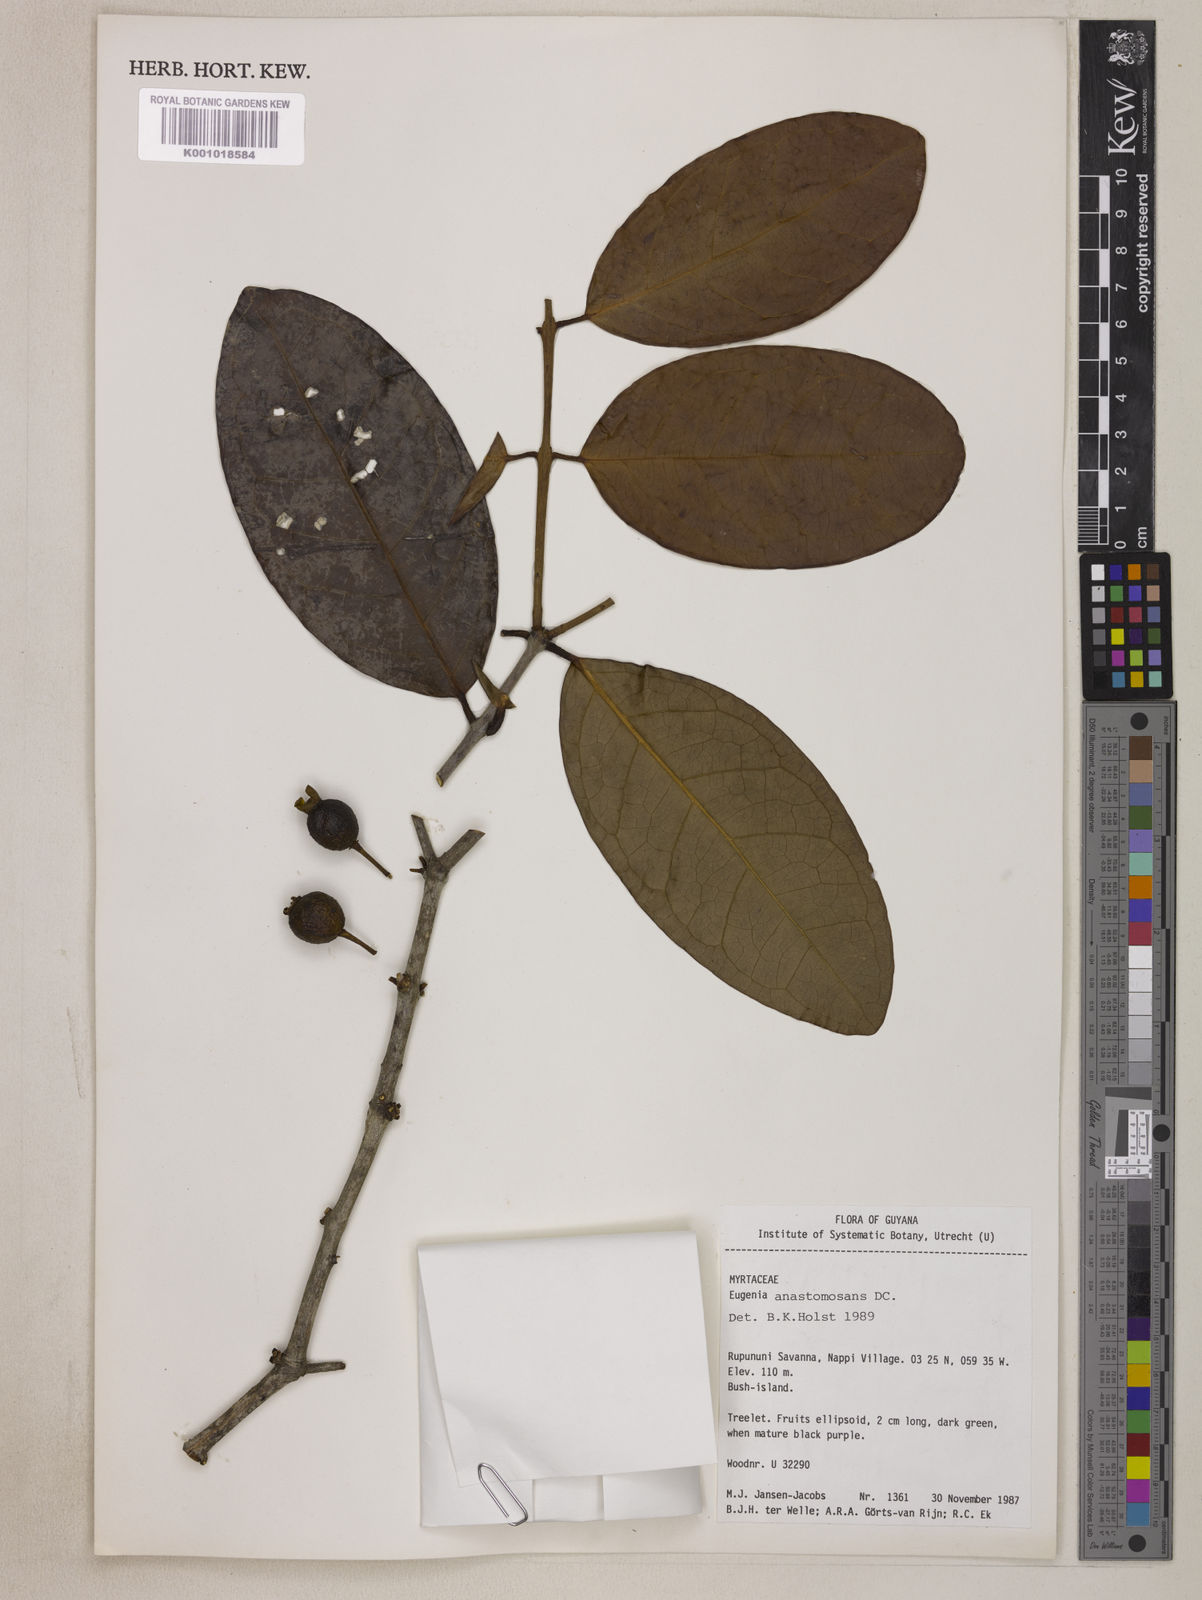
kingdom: Plantae
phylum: Tracheophyta
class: Magnoliopsida
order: Myrtales
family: Myrtaceae
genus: Eugenia
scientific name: Eugenia anastomosans
